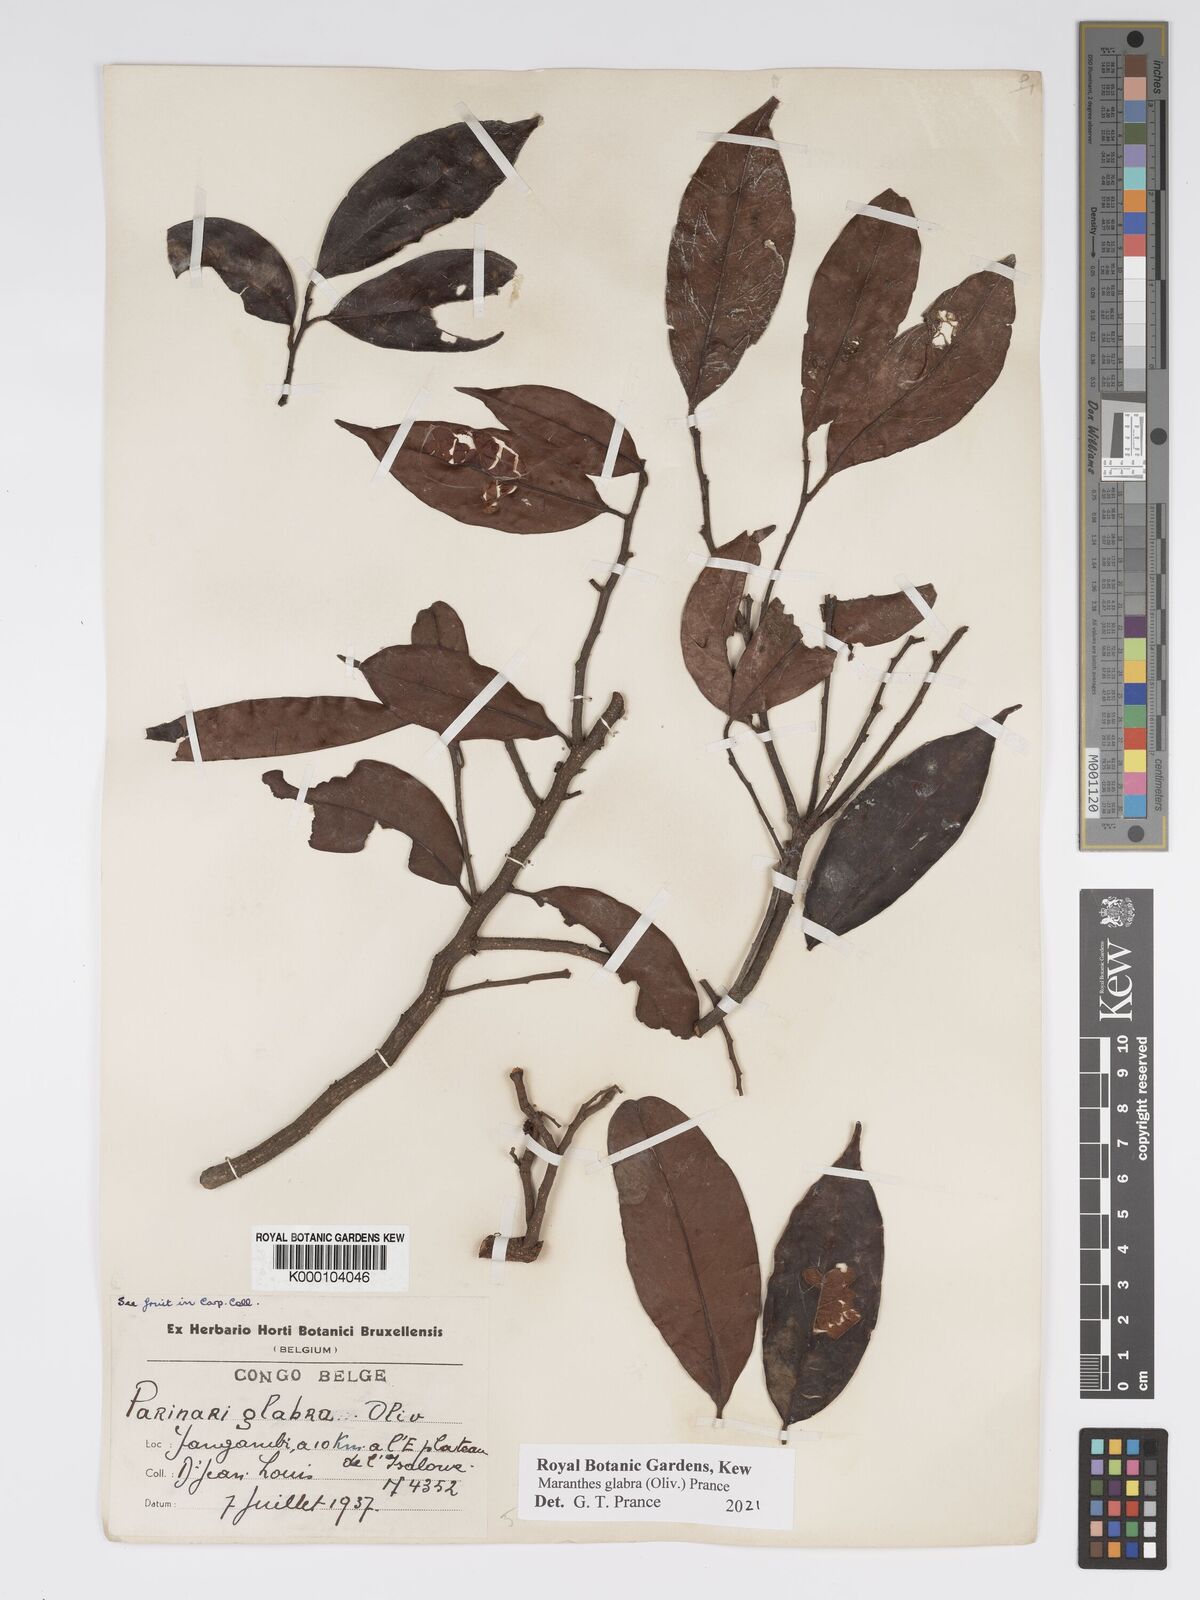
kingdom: Plantae
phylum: Tracheophyta
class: Magnoliopsida
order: Malpighiales
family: Chrysobalanaceae
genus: Maranthes
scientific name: Maranthes glabra
